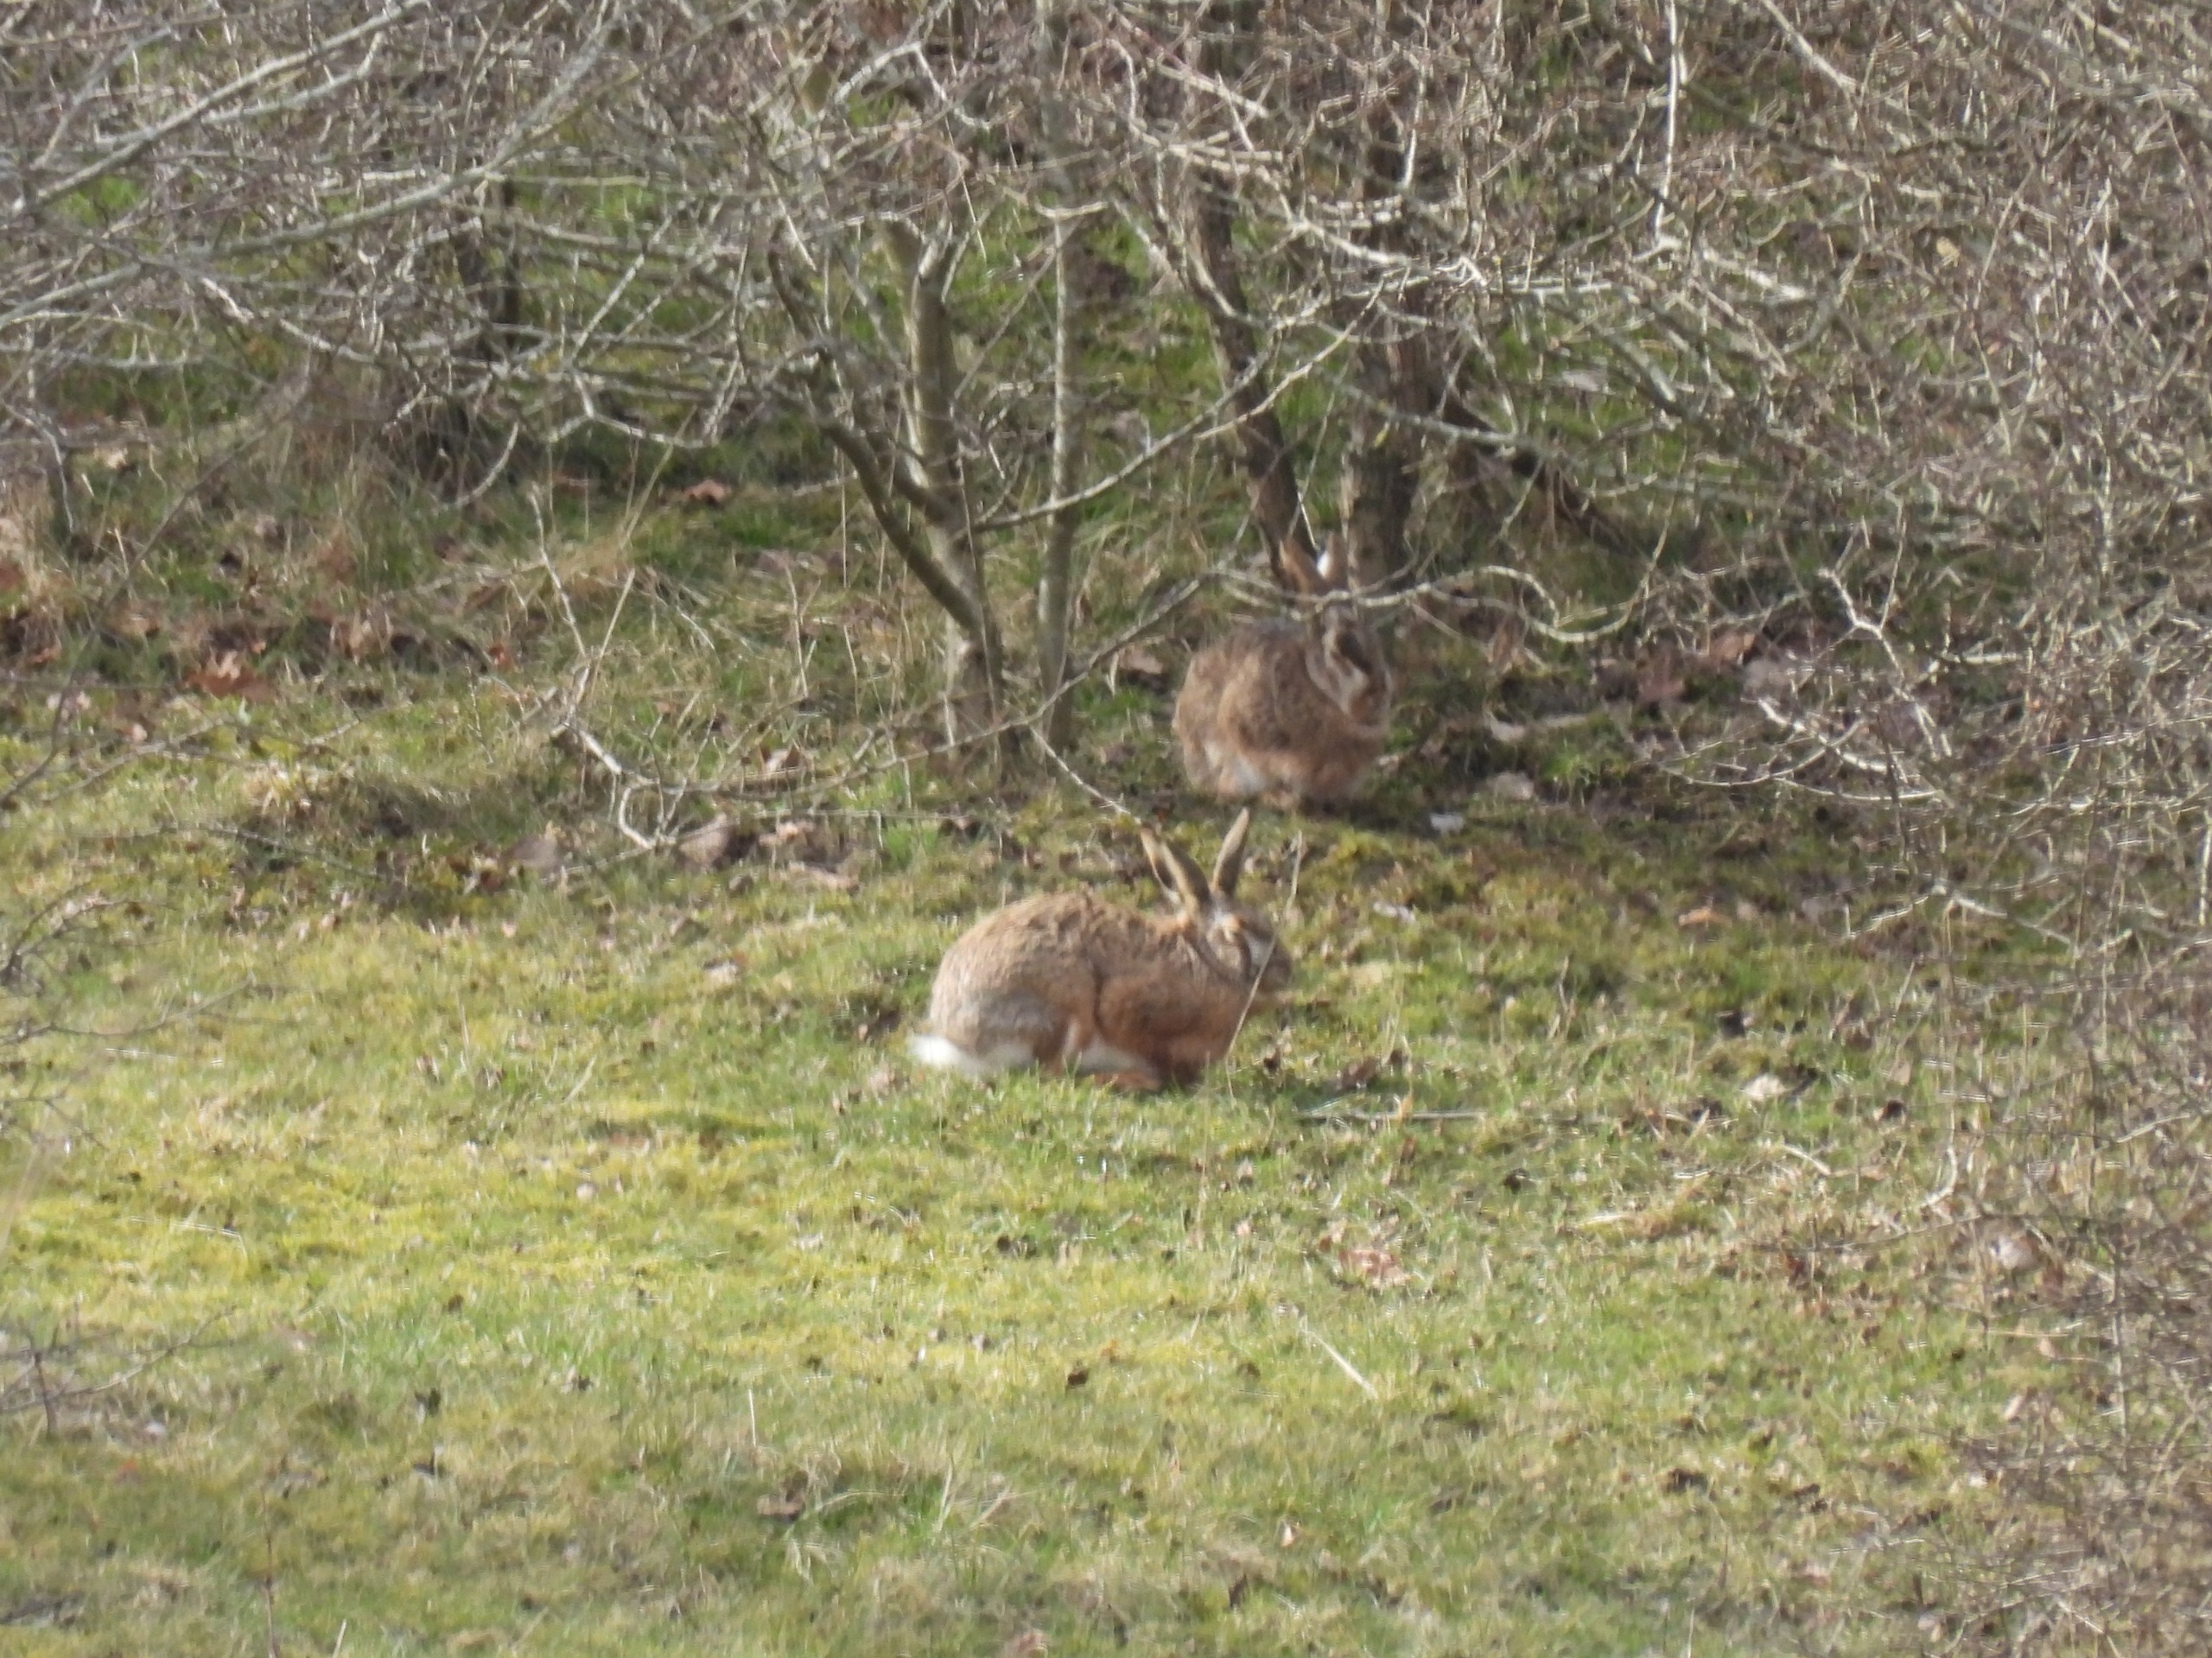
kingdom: Animalia
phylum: Chordata
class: Mammalia
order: Lagomorpha
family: Leporidae
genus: Lepus
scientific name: Lepus europaeus
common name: Hare
